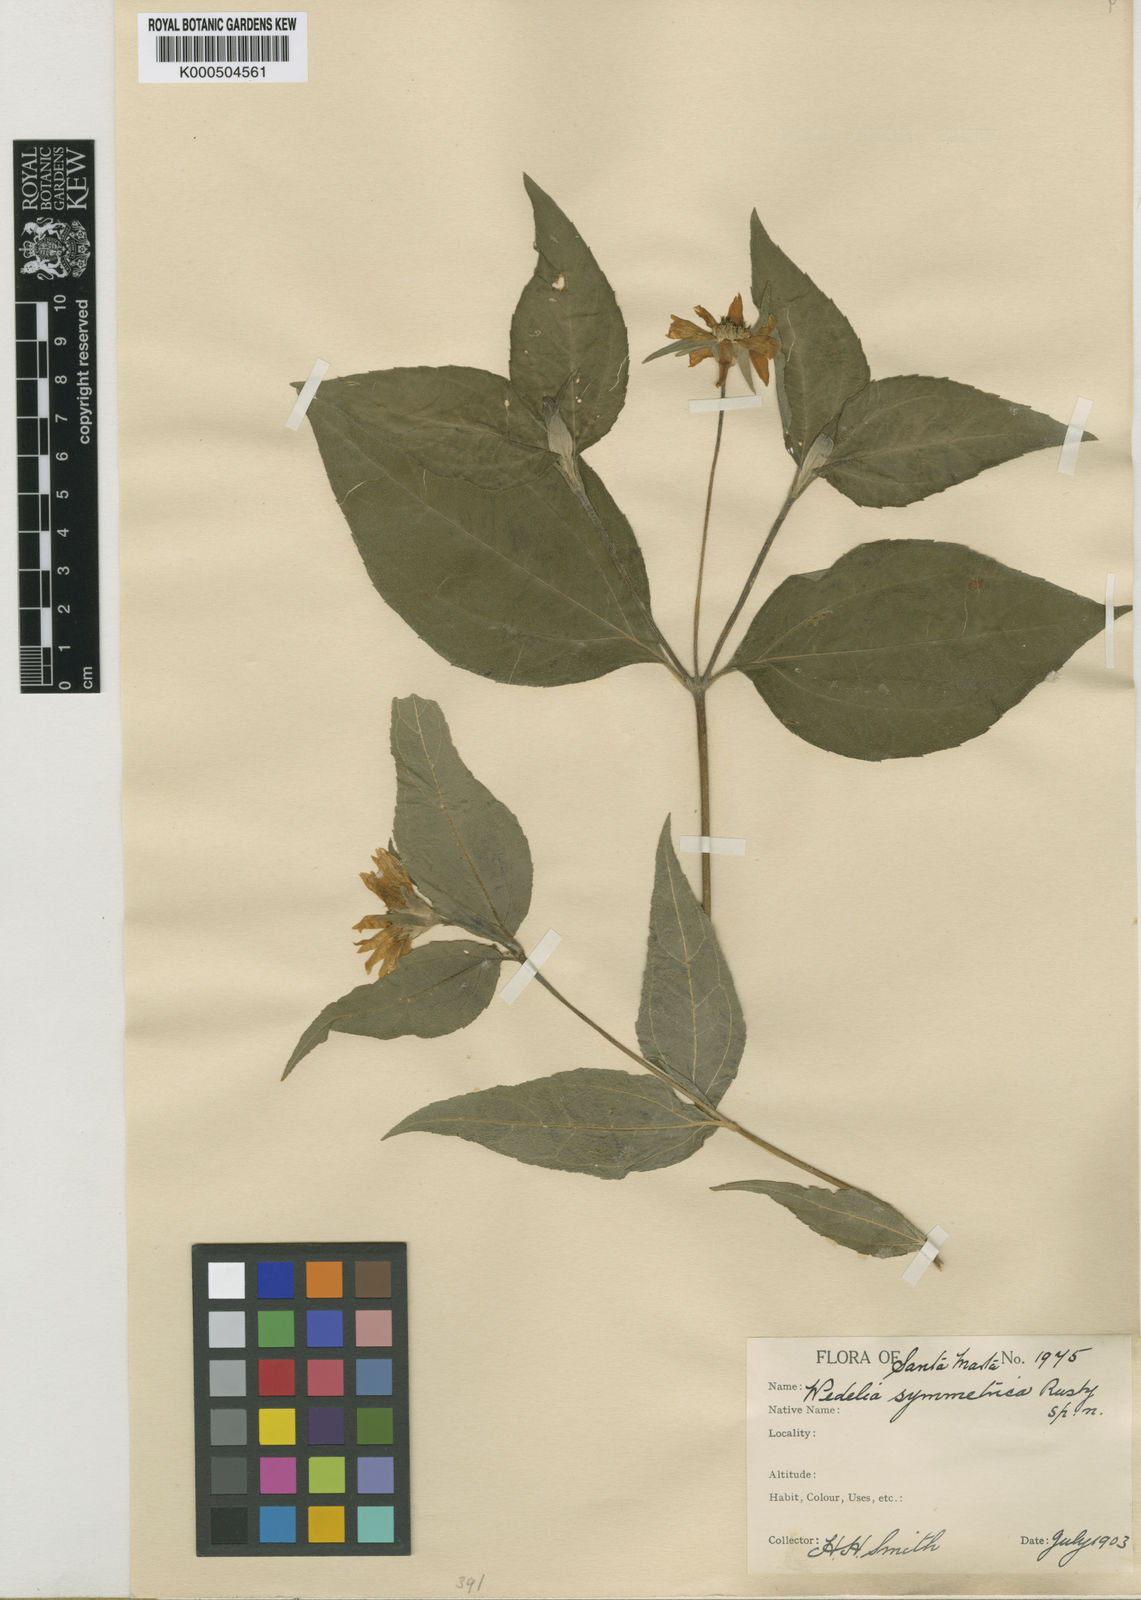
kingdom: Plantae
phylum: Tracheophyta
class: Magnoliopsida
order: Asterales
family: Asteraceae
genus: Wedelia
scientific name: Wedelia symmetrica
